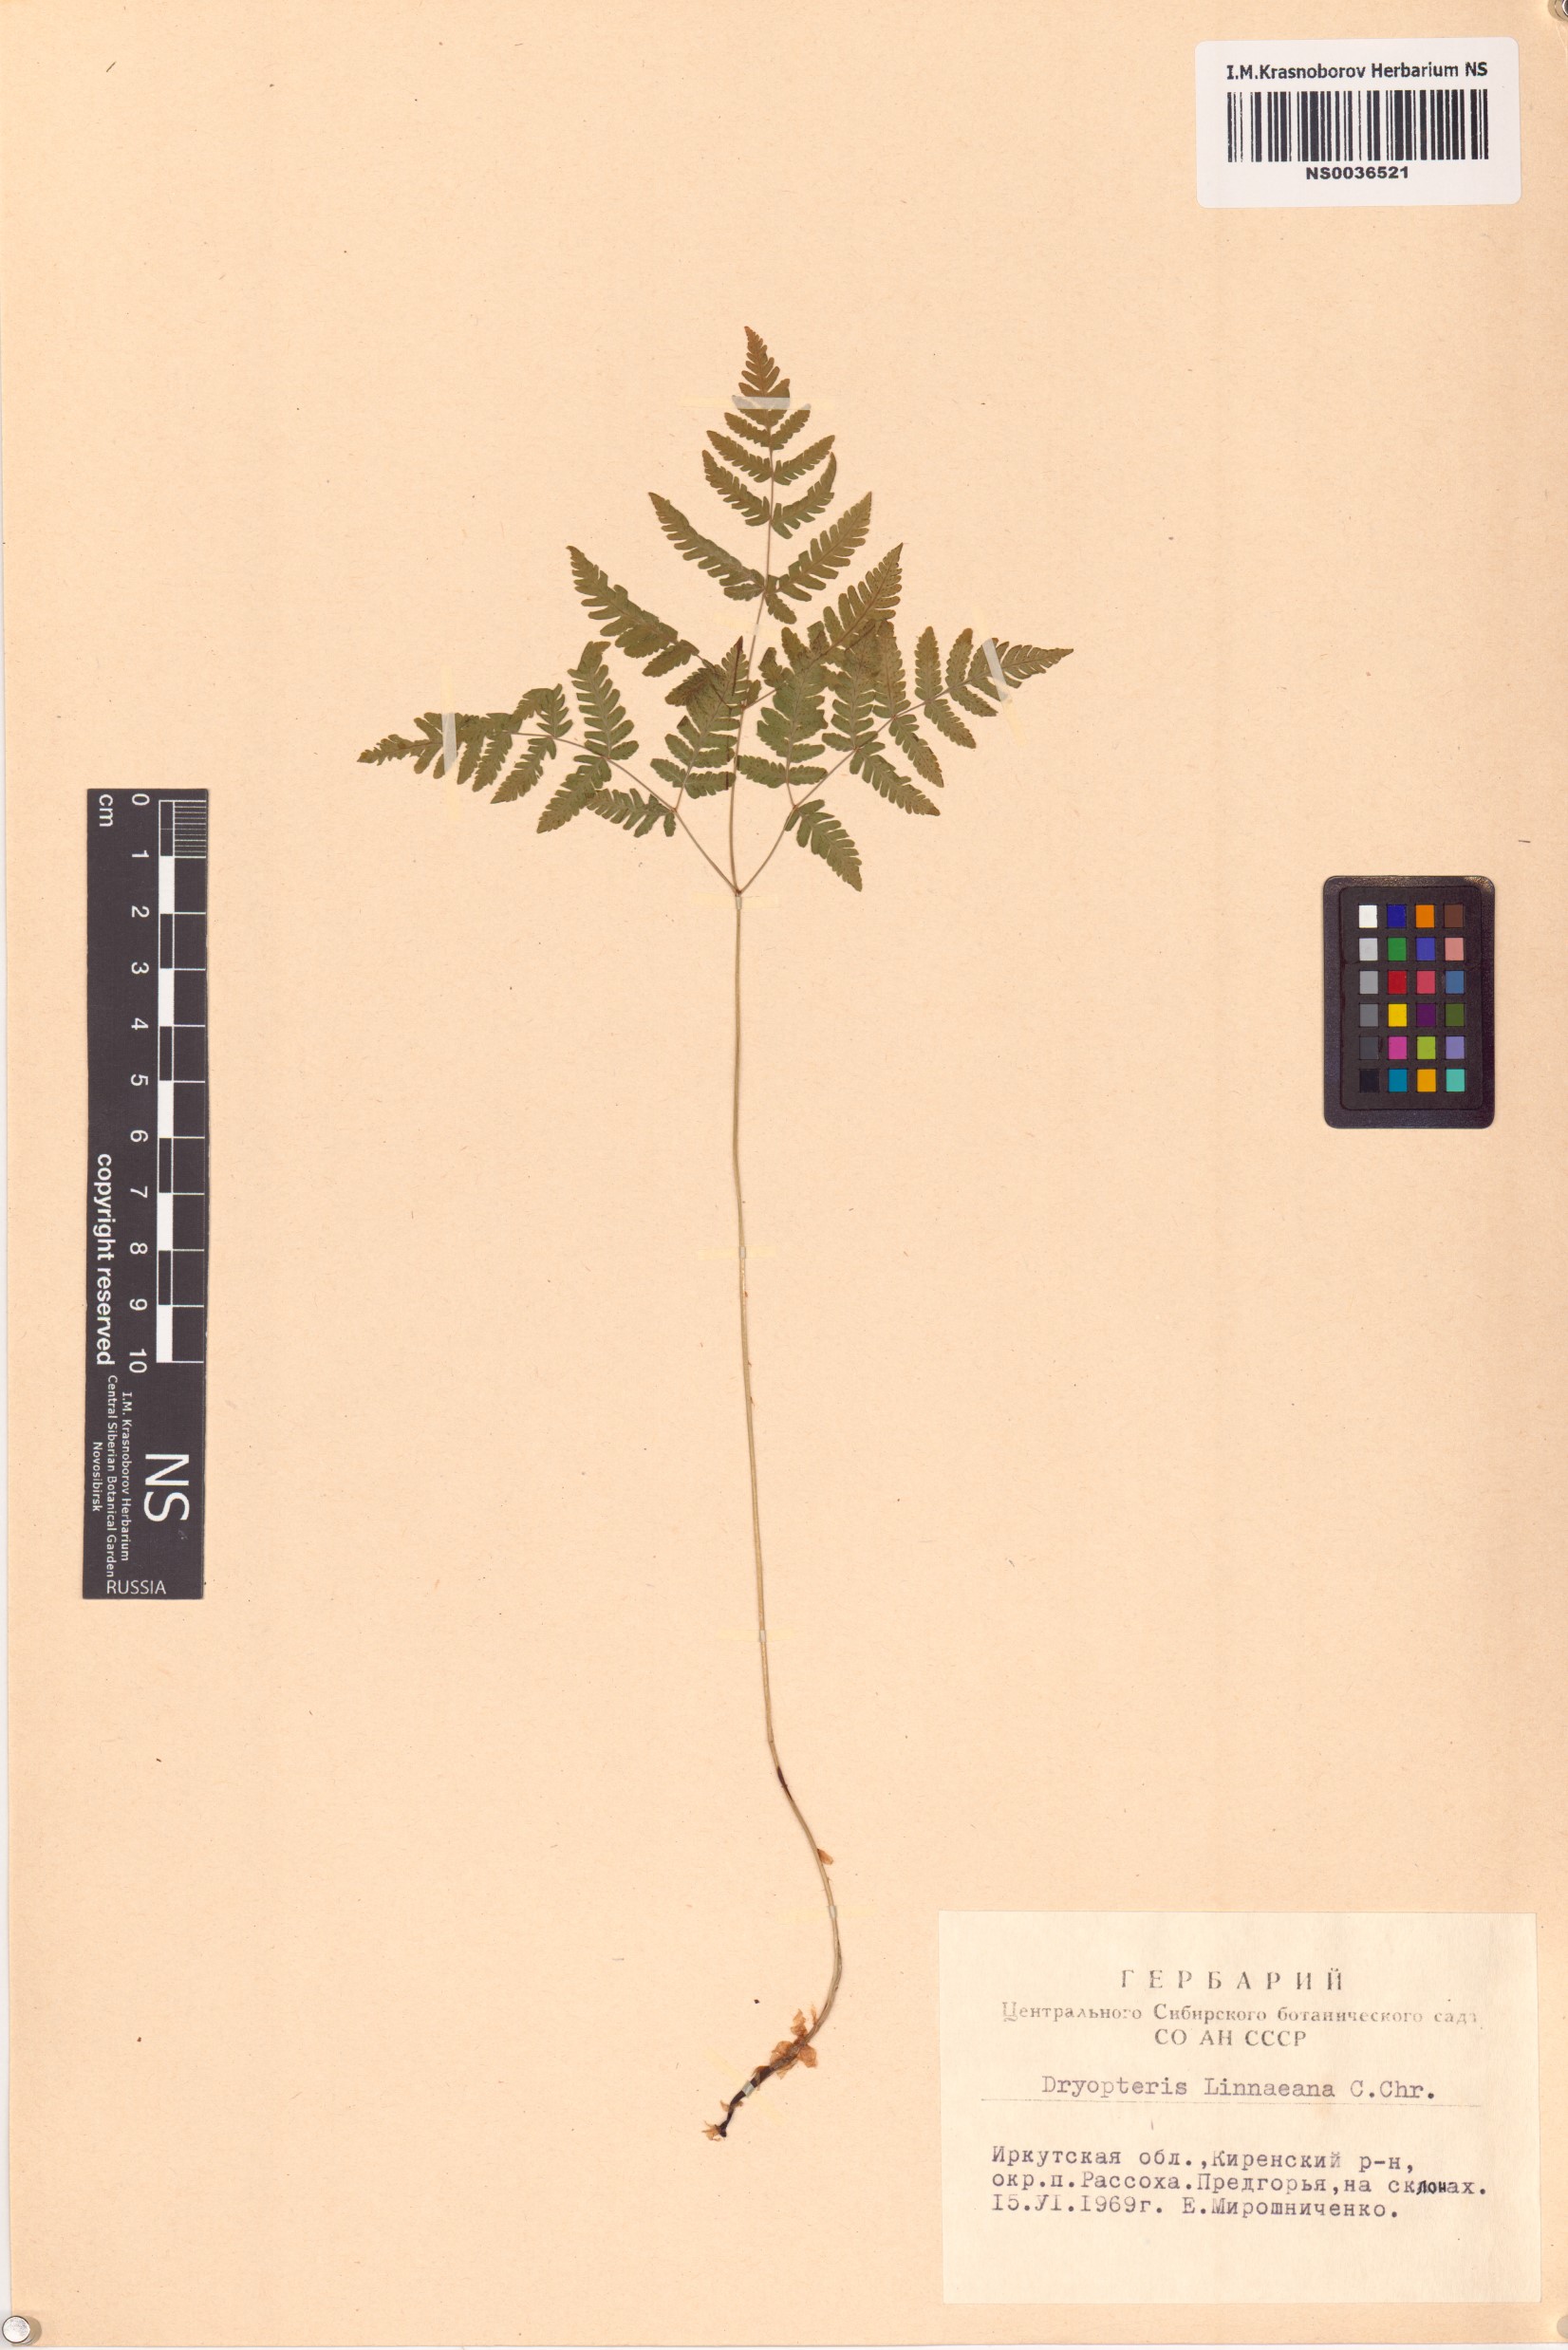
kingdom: Plantae
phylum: Tracheophyta
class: Polypodiopsida
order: Polypodiales
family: Cystopteridaceae
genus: Gymnocarpium
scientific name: Gymnocarpium dryopteris
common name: Oak fern
